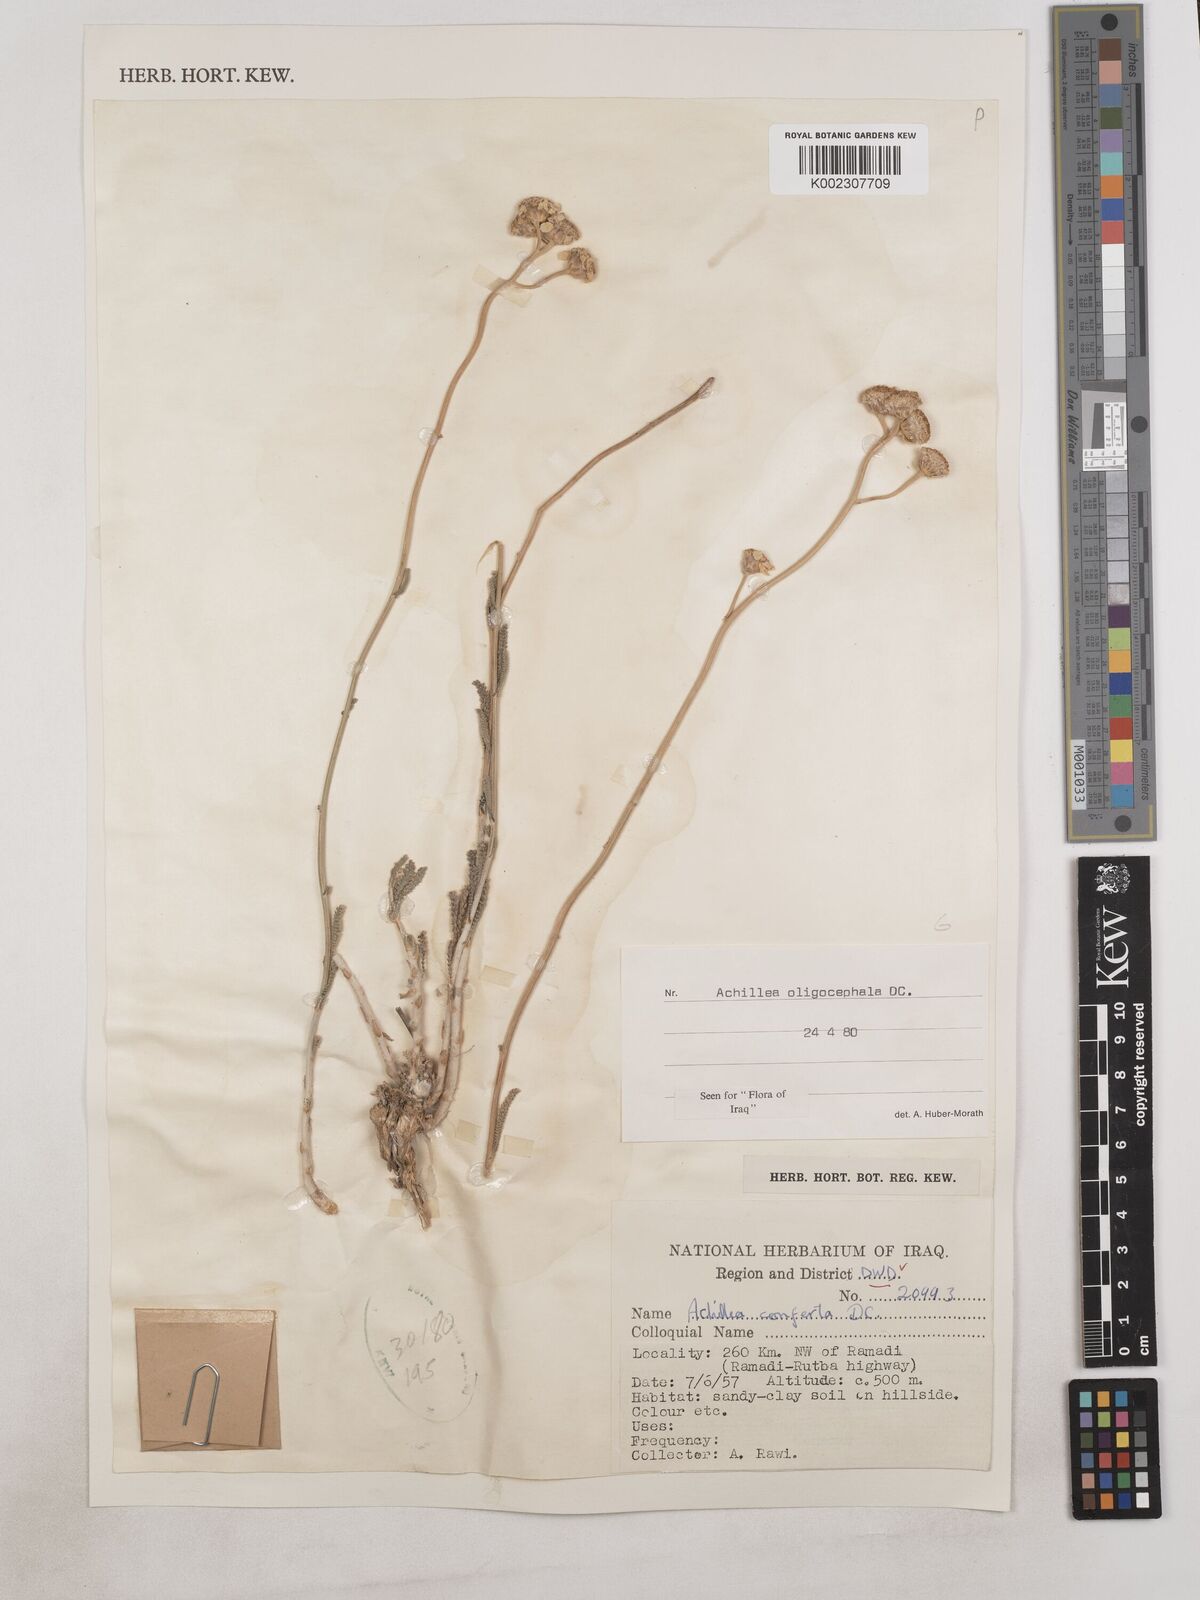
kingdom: Plantae
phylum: Tracheophyta
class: Magnoliopsida
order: Asterales
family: Asteraceae
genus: Achillea
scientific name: Achillea oligocephala
